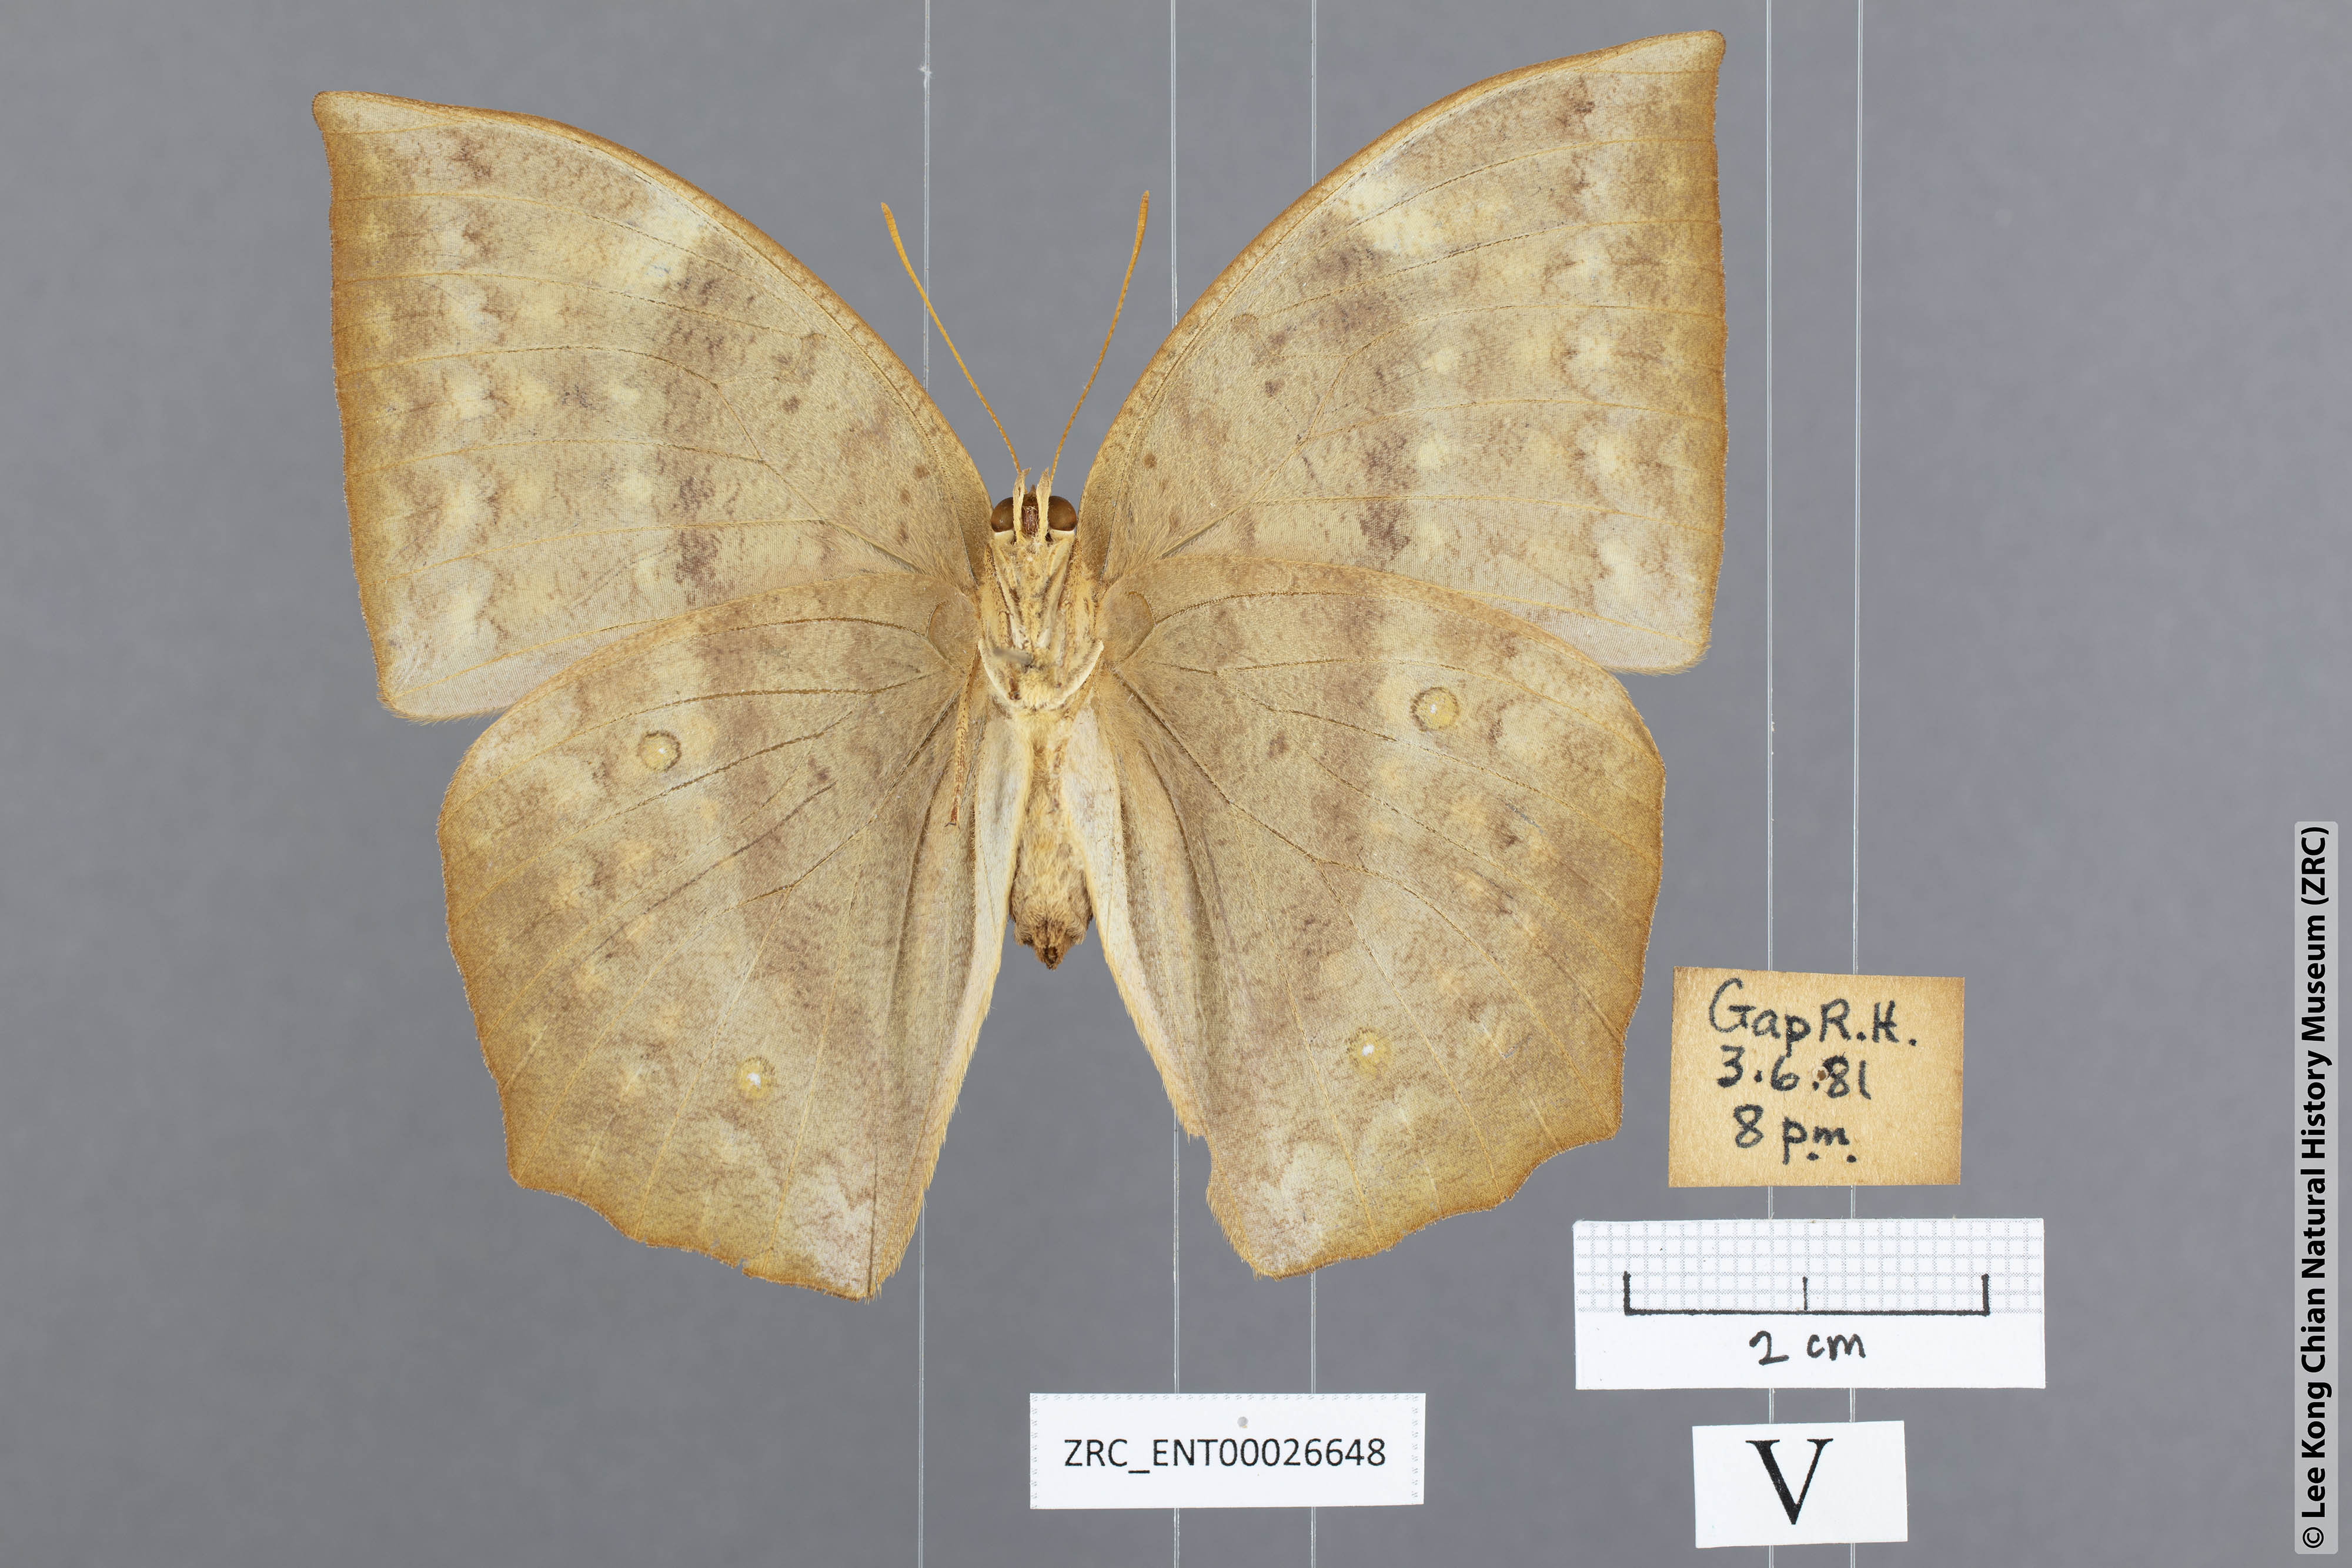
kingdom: Animalia
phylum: Arthropoda
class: Insecta
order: Lepidoptera
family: Nymphalidae
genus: Discophora
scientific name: Discophora sondaica
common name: Common duffer
